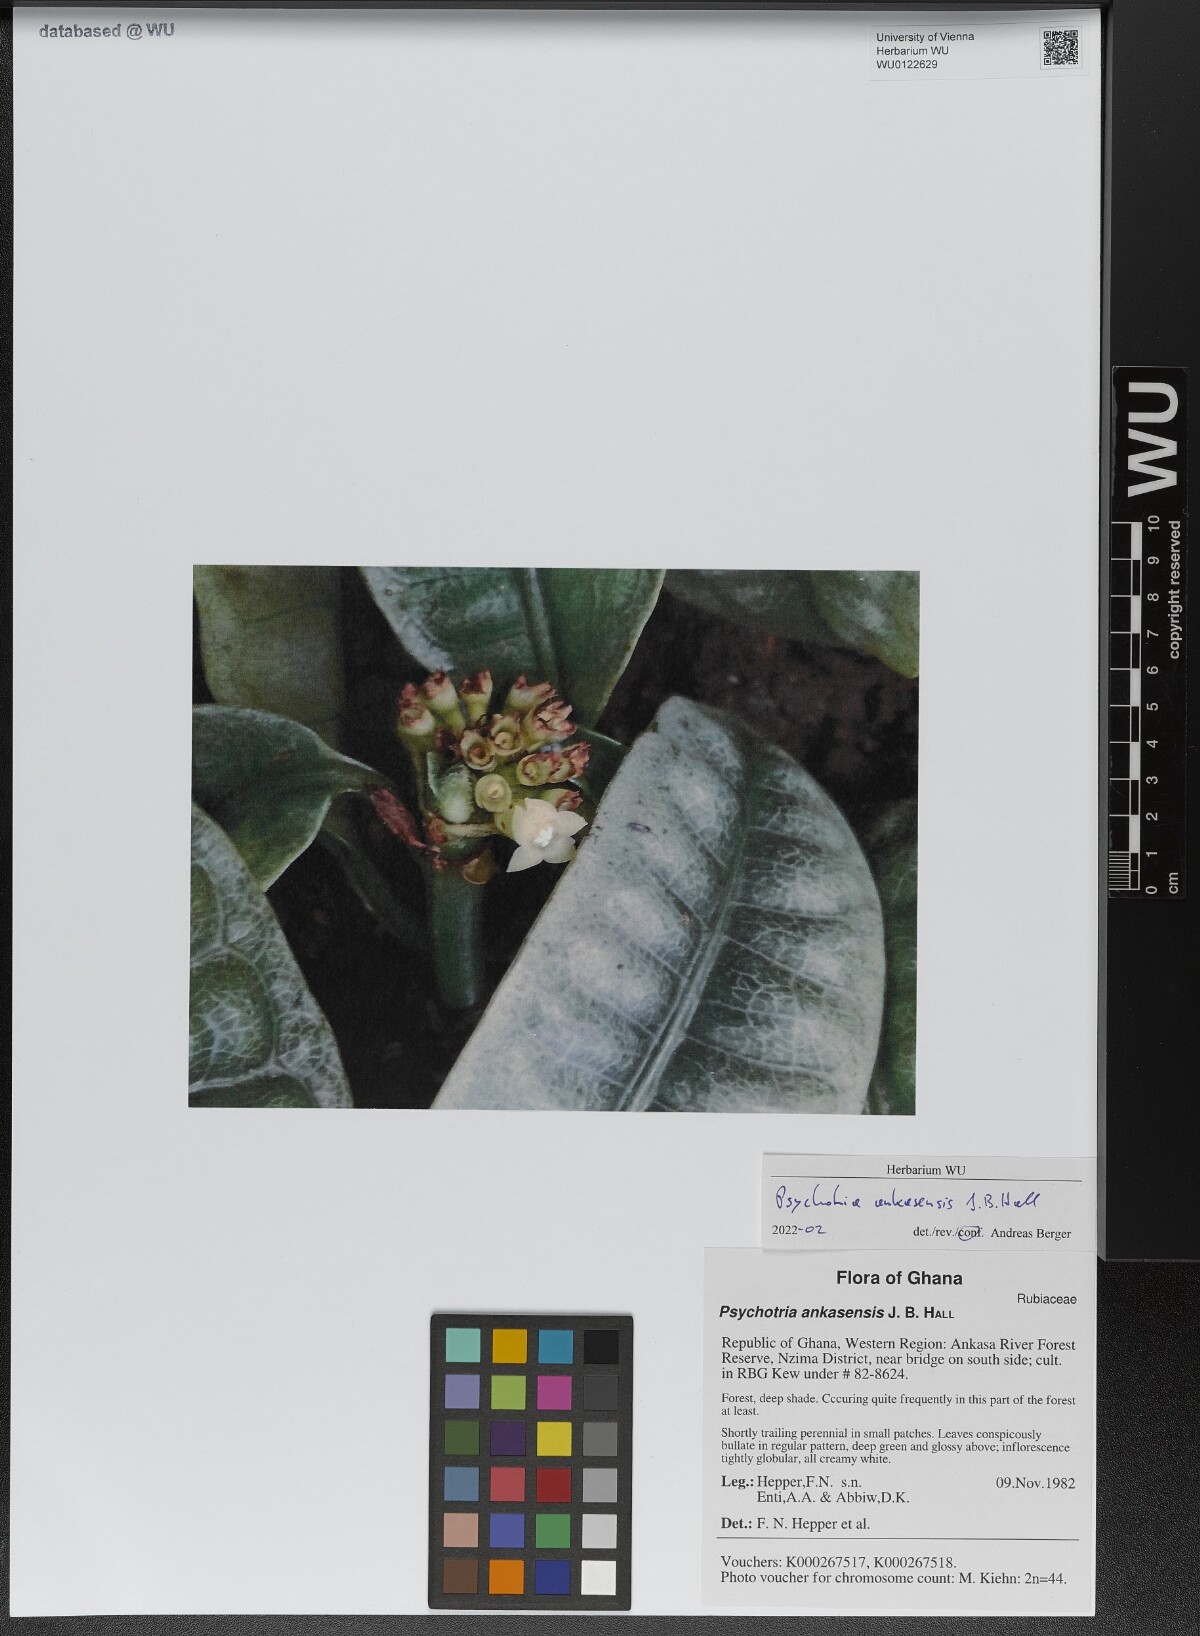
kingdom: Plantae
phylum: Tracheophyta
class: Magnoliopsida
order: Gentianales
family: Rubiaceae
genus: Psychotria
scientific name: Psychotria ankasensis
